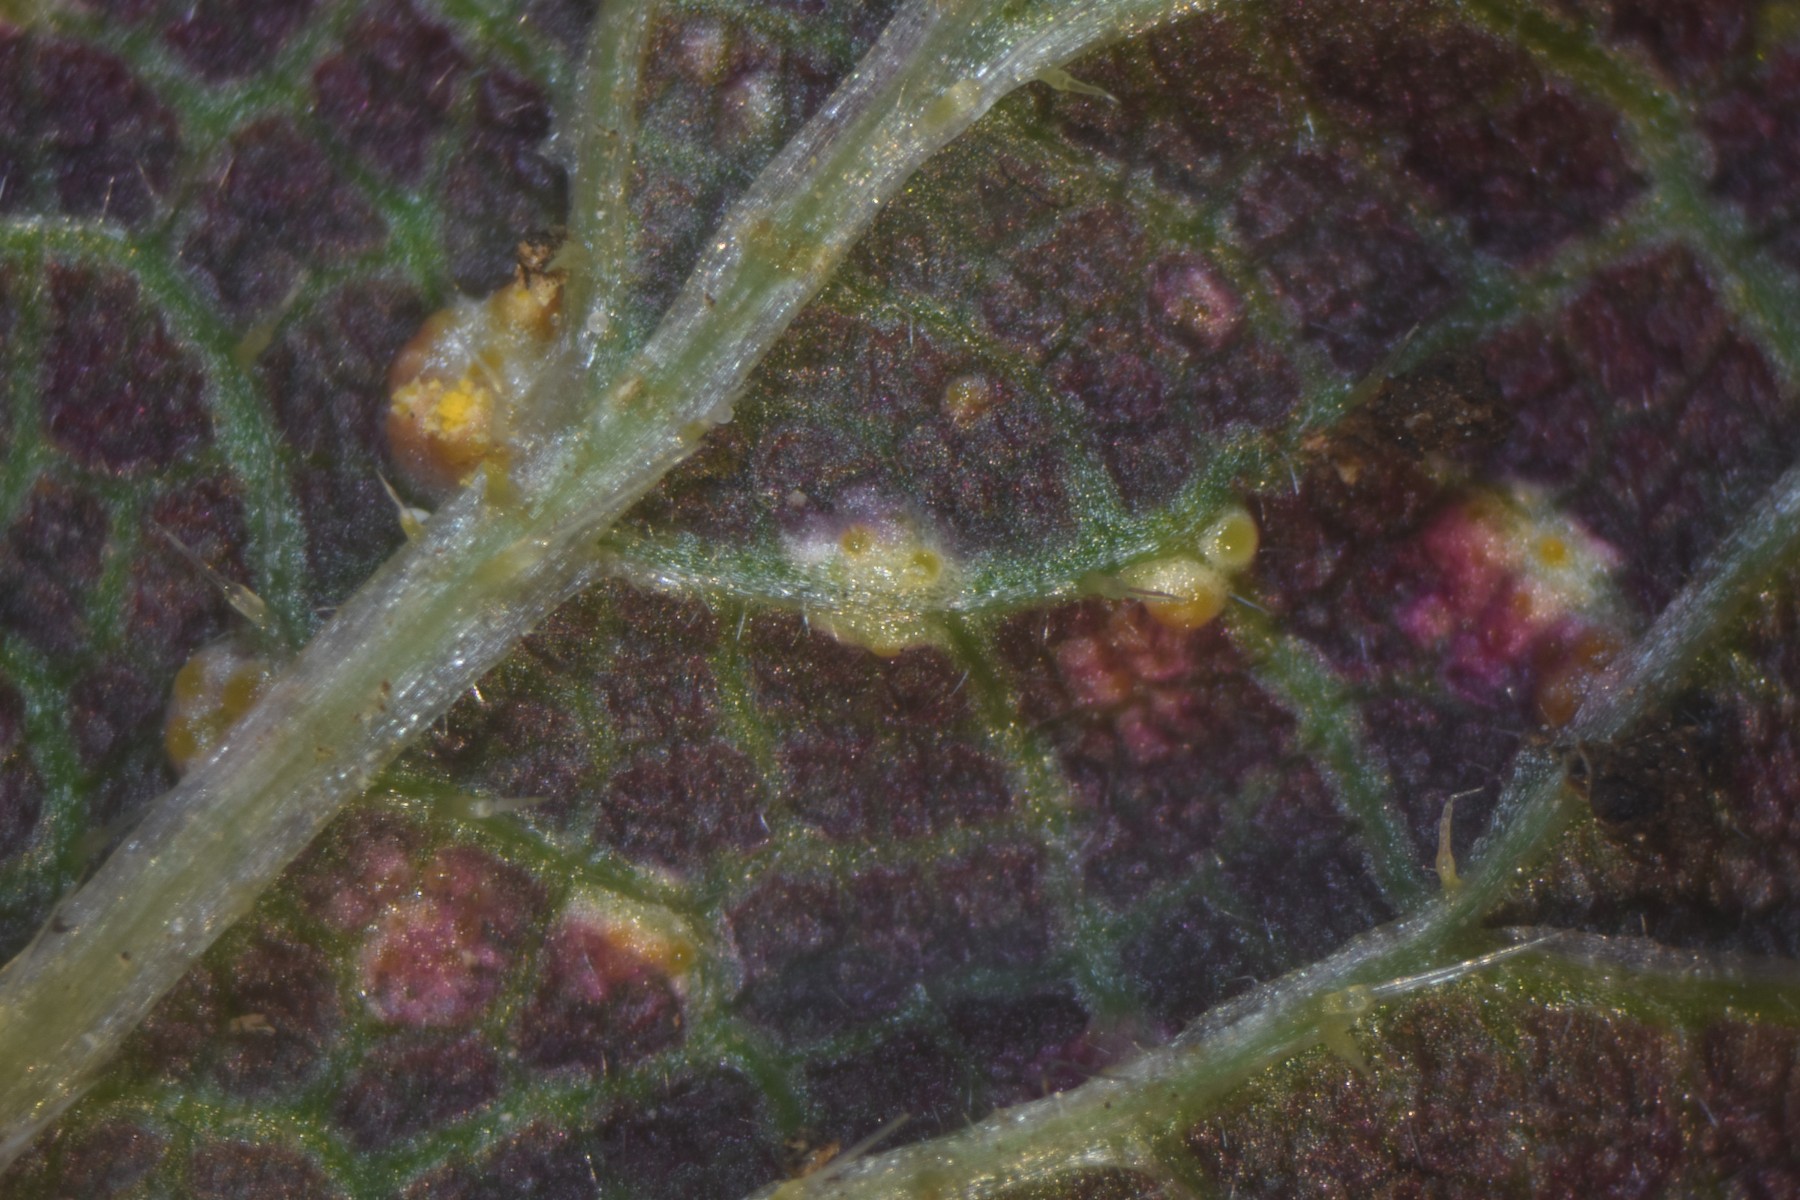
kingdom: Fungi
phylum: Basidiomycota
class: Pucciniomycetes
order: Pucciniales
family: Pucciniaceae
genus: Puccinia
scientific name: Puccinia urticata
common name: nældegalle-tvecellerust
